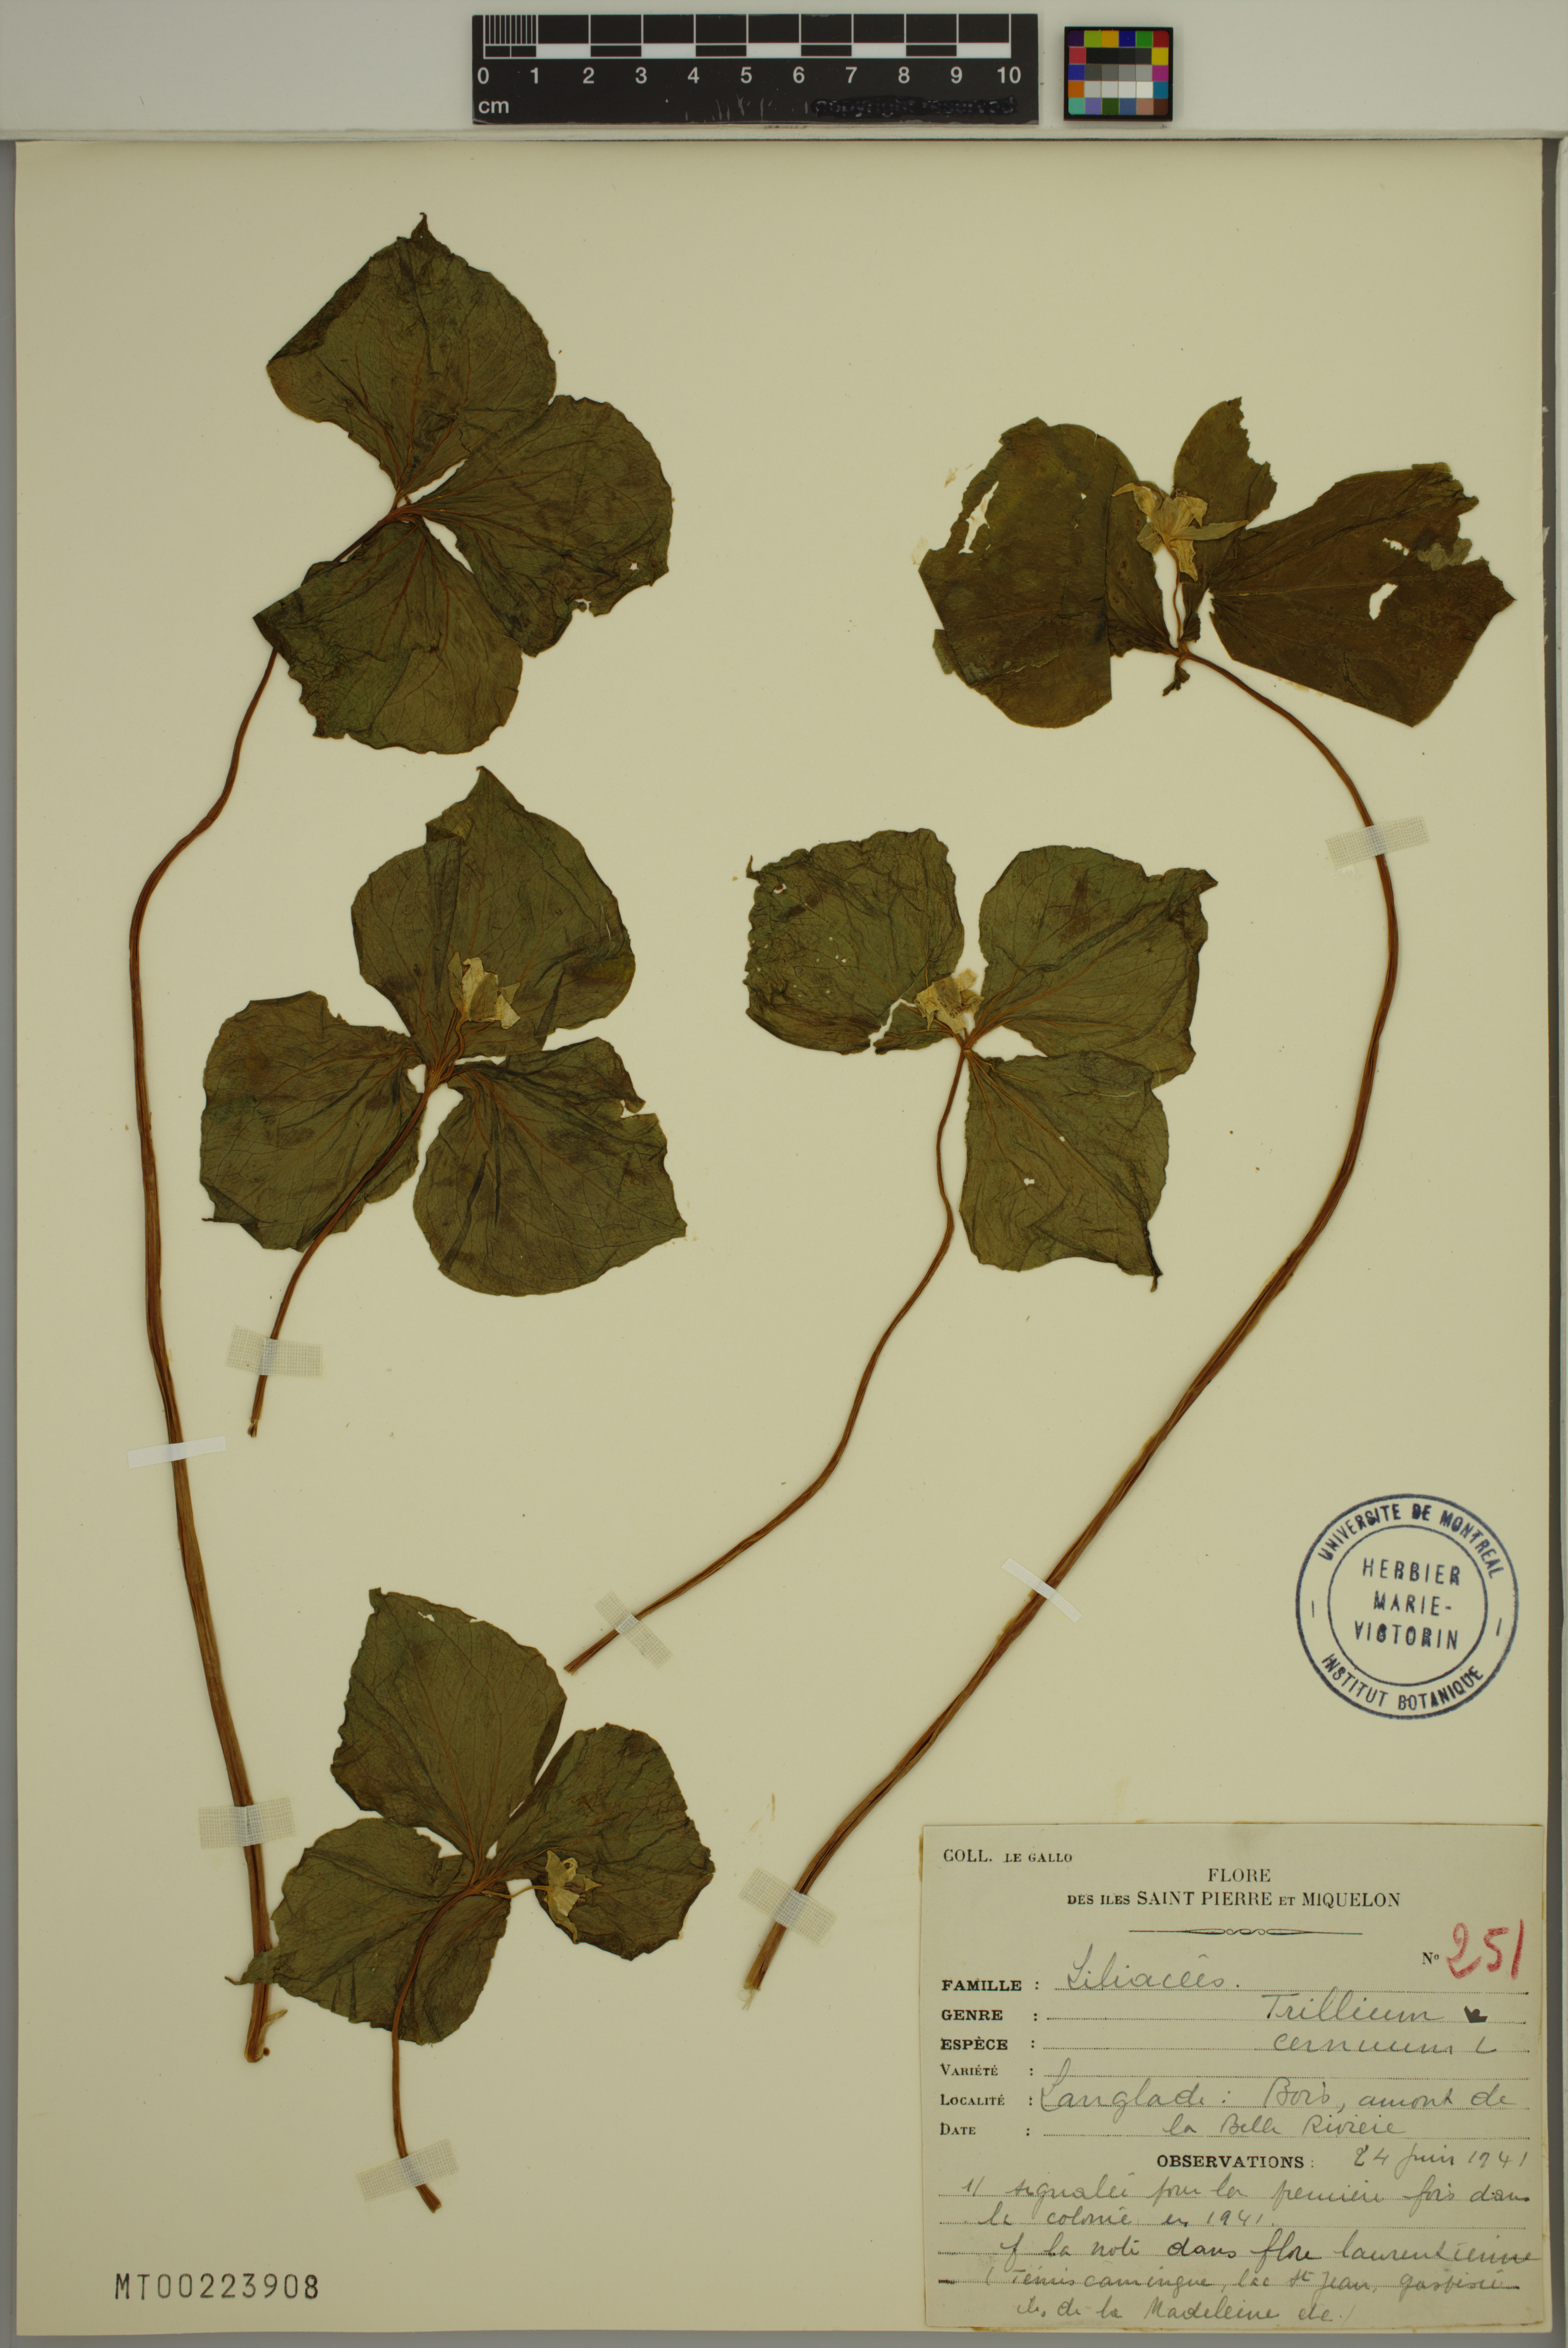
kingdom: Plantae
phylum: Tracheophyta
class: Liliopsida
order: Liliales
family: Melanthiaceae
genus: Trillium
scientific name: Trillium cernuum
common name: Nodding trillium
